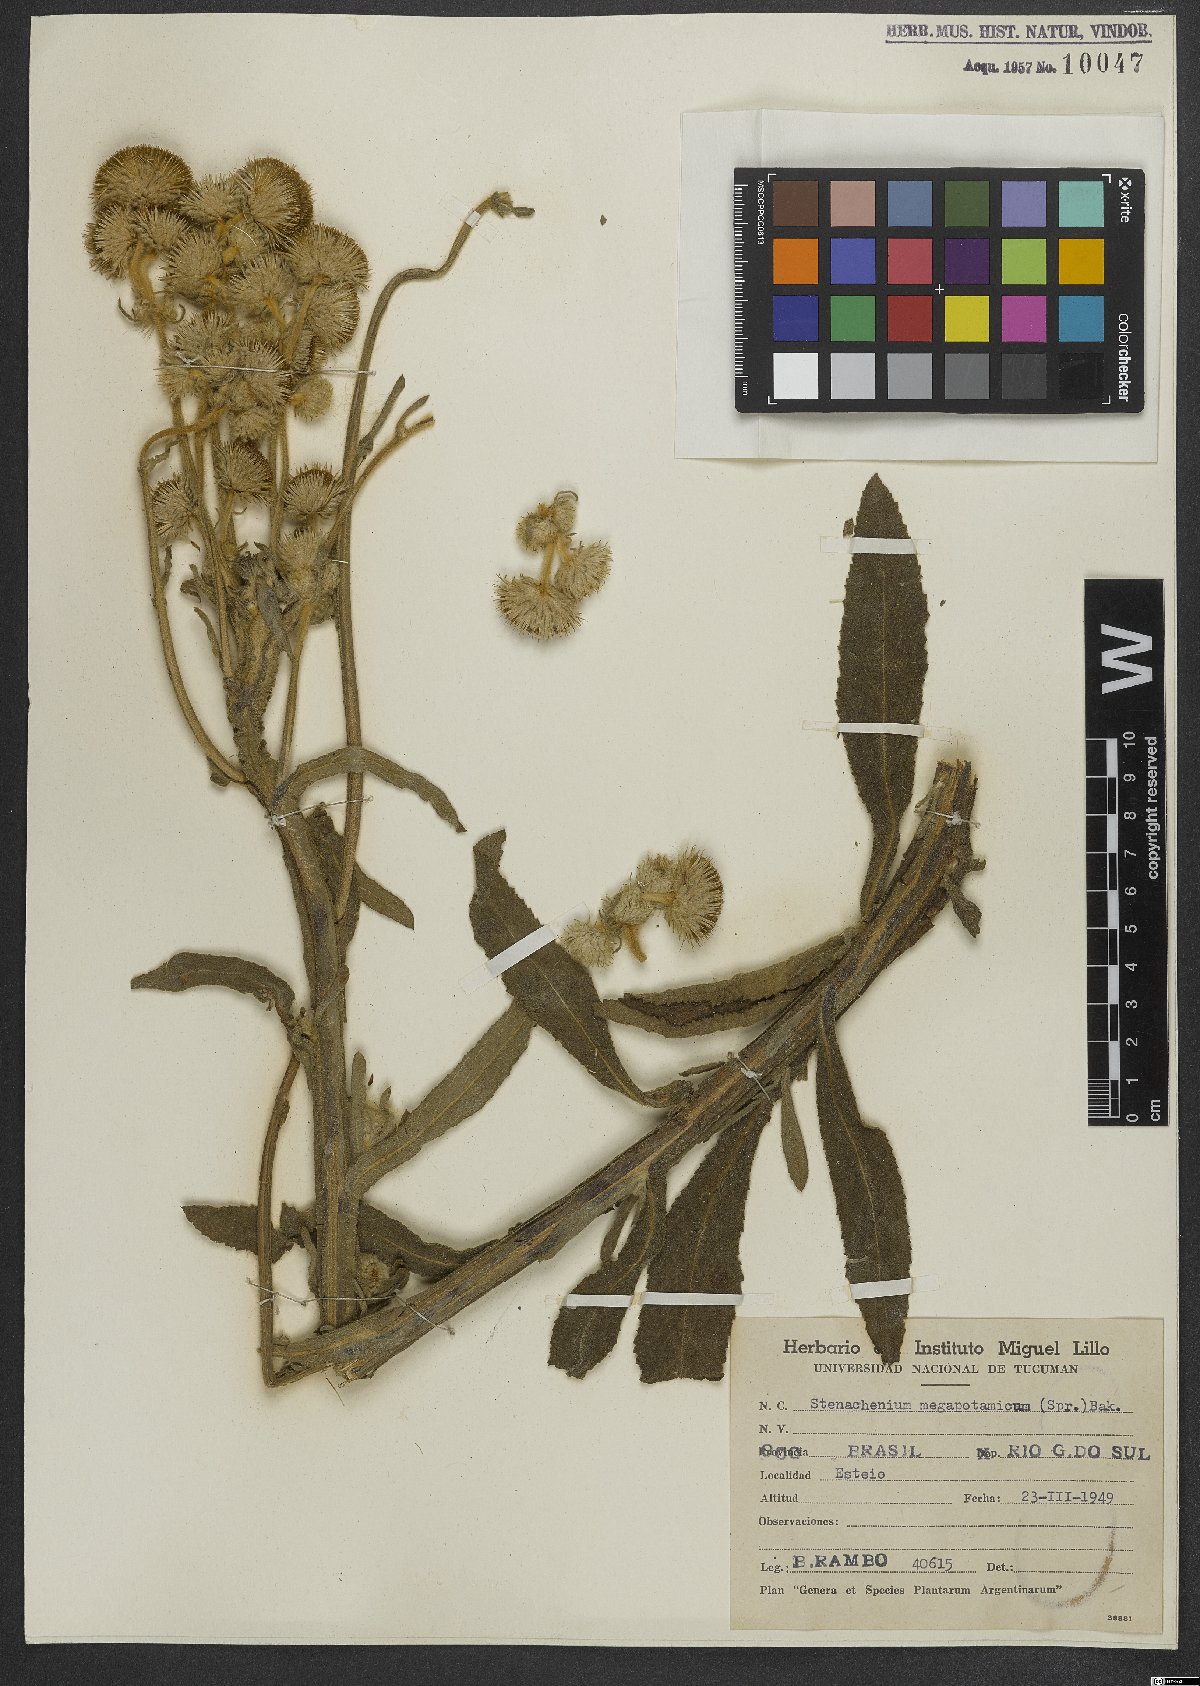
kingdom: Plantae
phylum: Tracheophyta
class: Magnoliopsida
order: Asterales
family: Asteraceae
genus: Stenachaenium
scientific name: Stenachaenium megapotamicum
